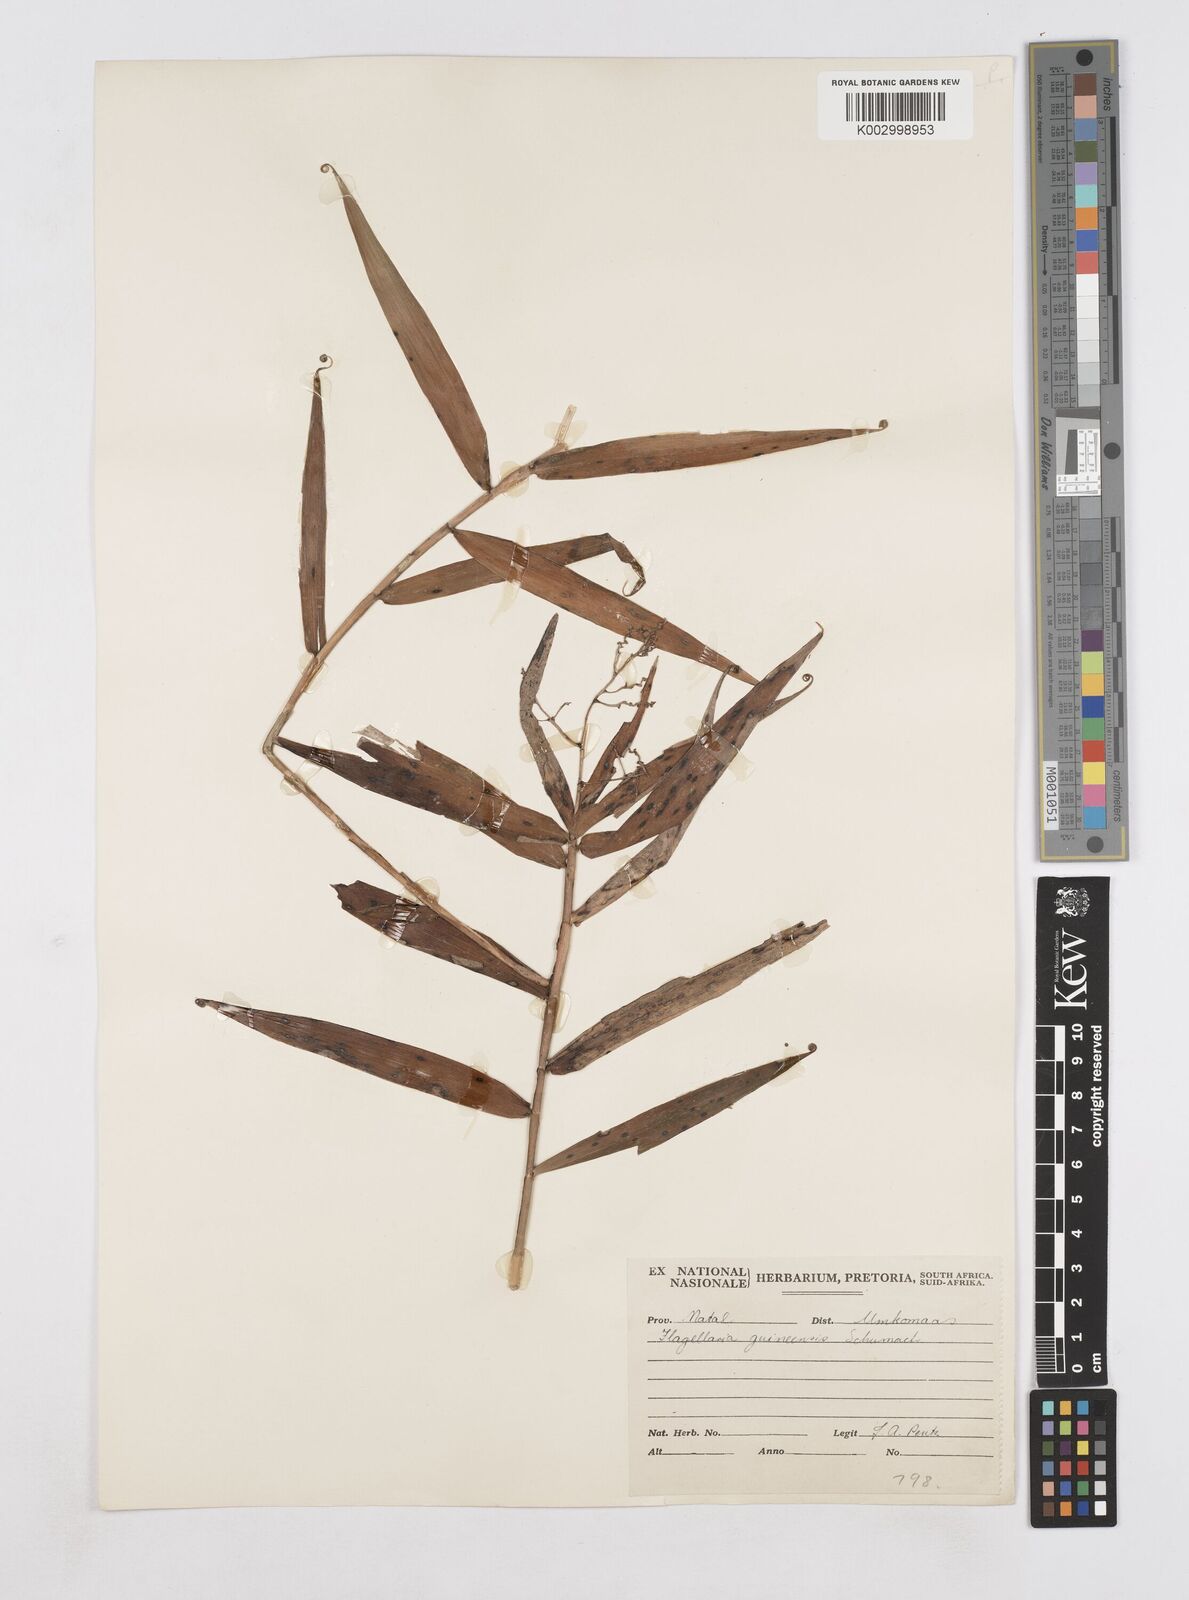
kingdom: Plantae
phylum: Tracheophyta
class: Liliopsida
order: Poales
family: Flagellariaceae
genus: Flagellaria
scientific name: Flagellaria guineensis
